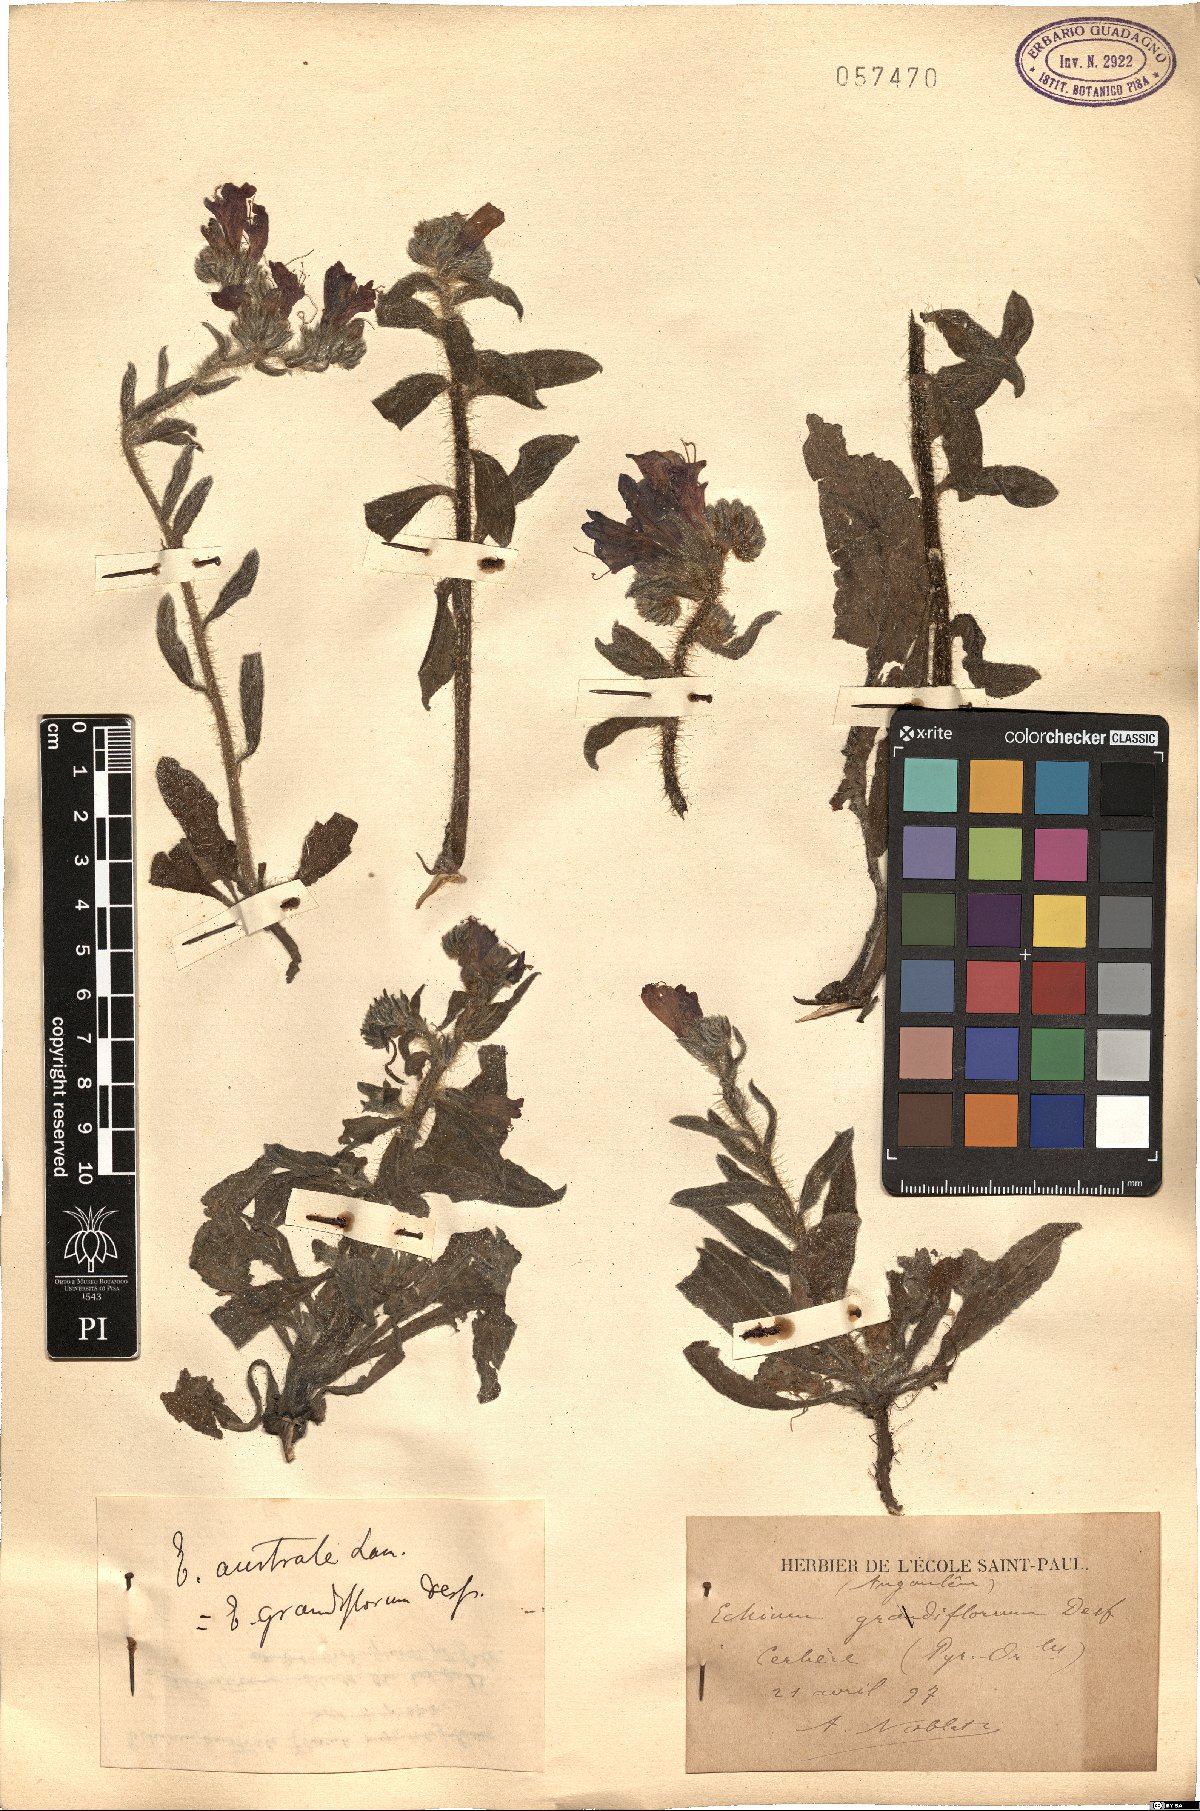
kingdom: Plantae
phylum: Tracheophyta
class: Magnoliopsida
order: Boraginales
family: Boraginaceae
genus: Echium
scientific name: Echium creticum
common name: Cretan viper's bugloss
